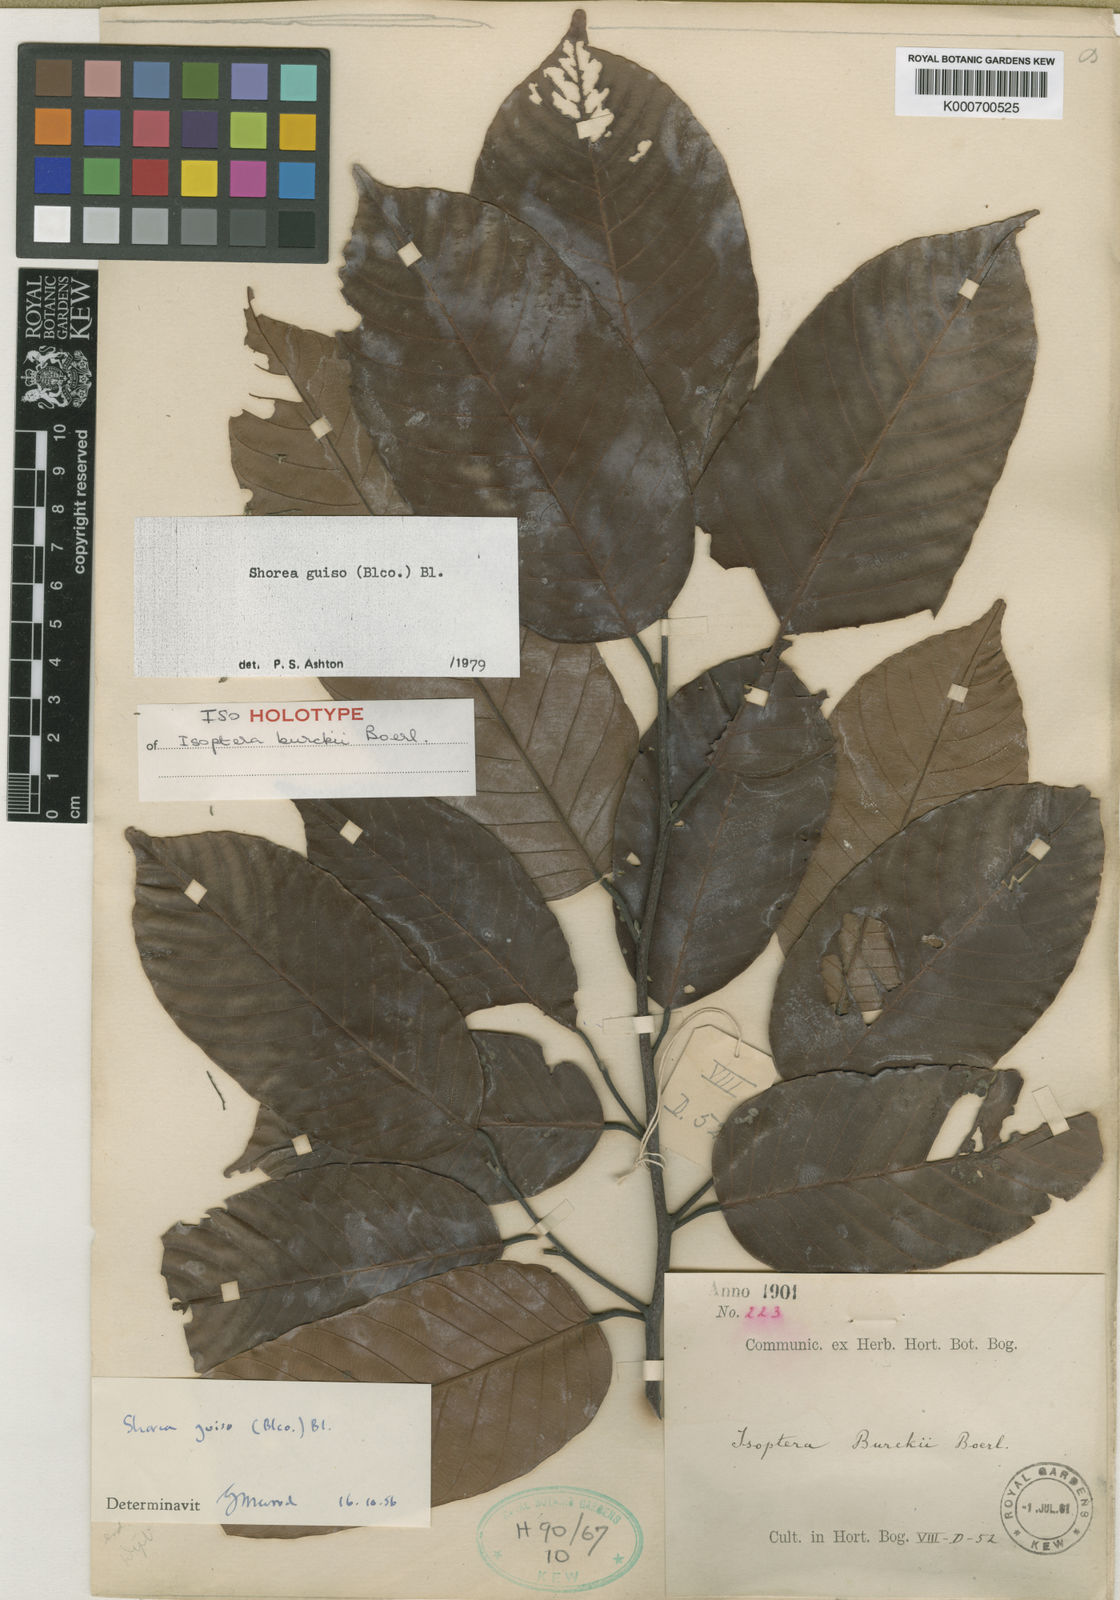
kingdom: Plantae
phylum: Tracheophyta
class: Magnoliopsida
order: Malvales
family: Dipterocarpaceae
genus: Shorea
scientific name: Shorea guiso
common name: Red balau
